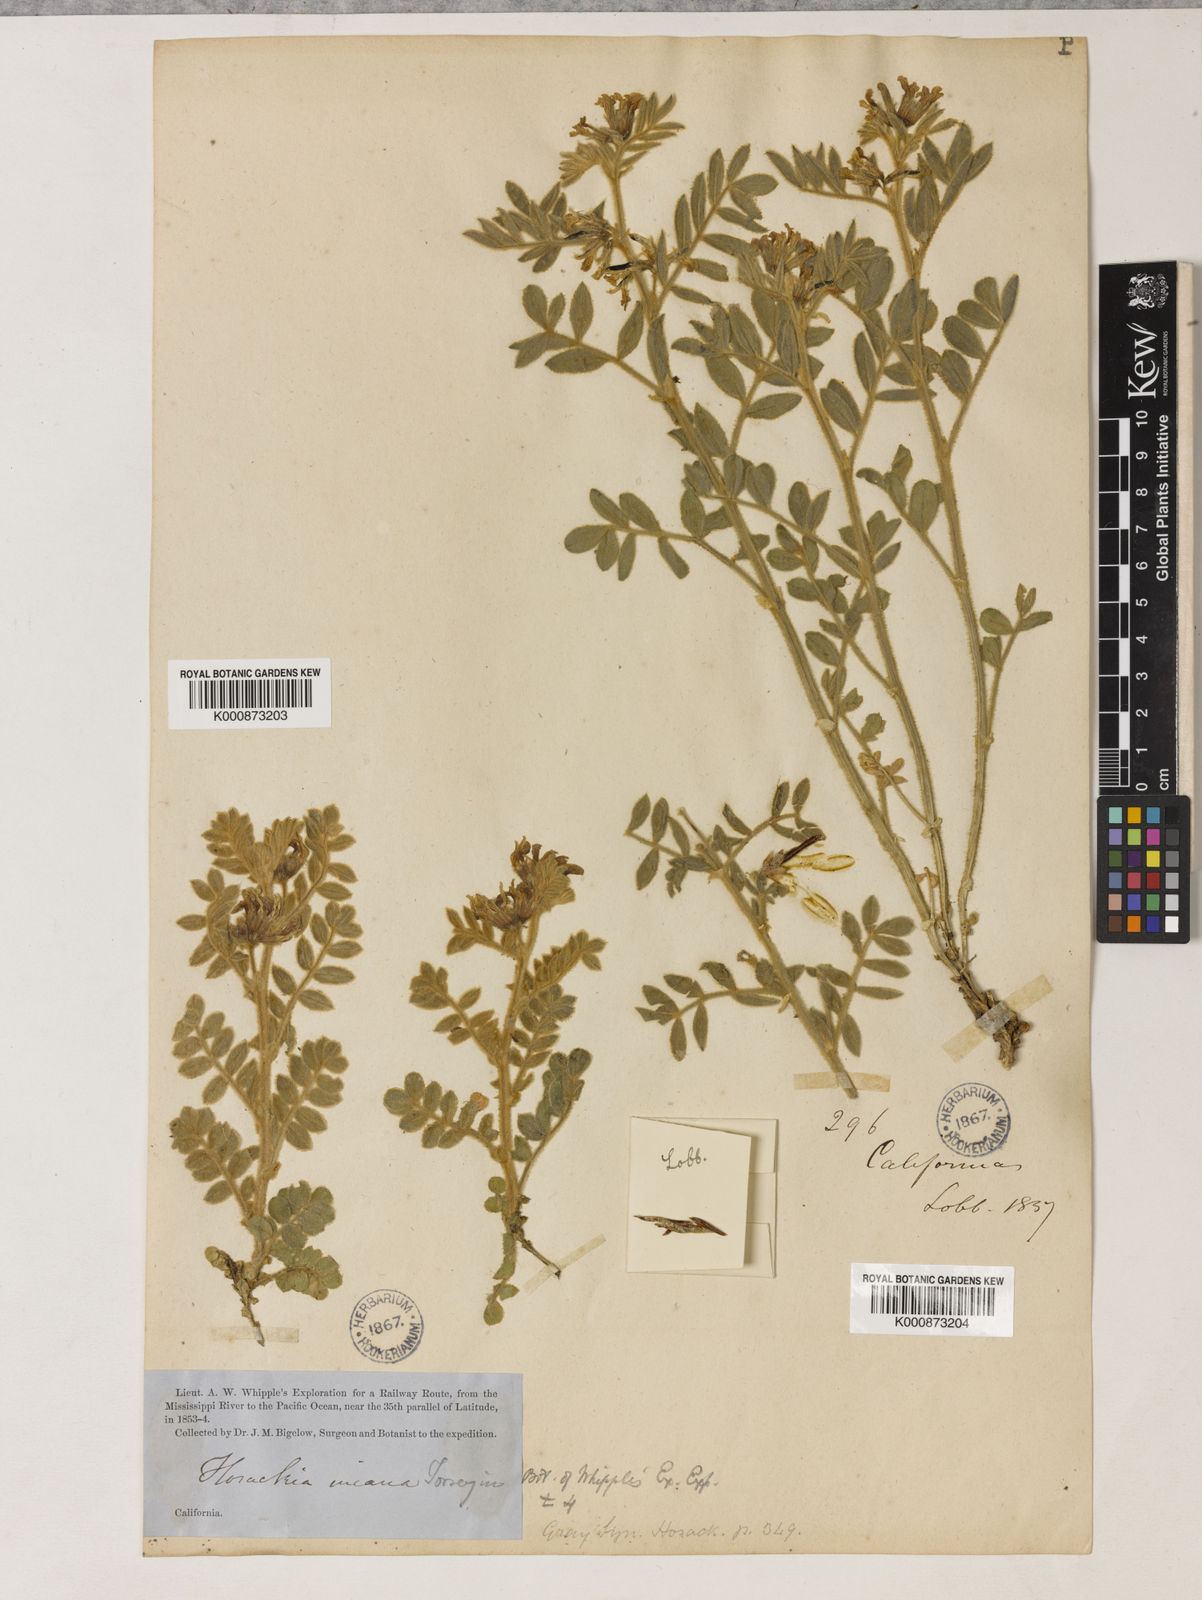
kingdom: Plantae
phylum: Tracheophyta
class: Magnoliopsida
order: Fabales
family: Fabaceae
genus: Hosackia
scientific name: Hosackia incana
